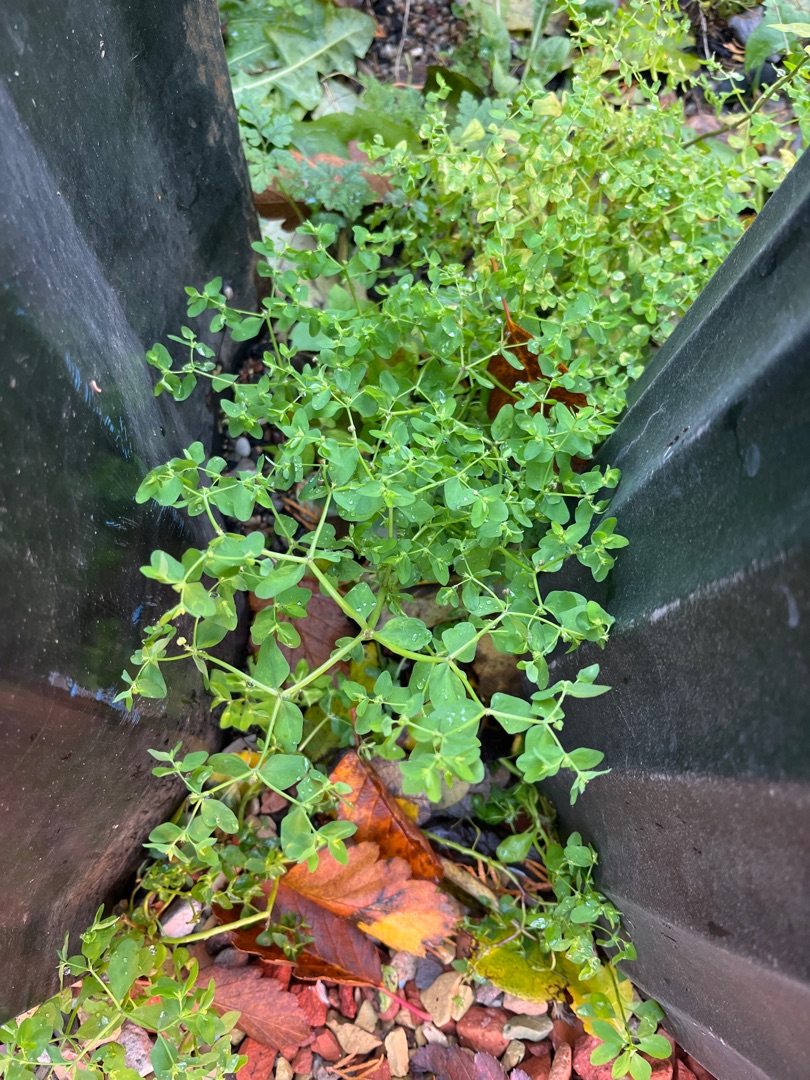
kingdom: Plantae
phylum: Tracheophyta
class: Magnoliopsida
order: Malpighiales
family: Euphorbiaceae
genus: Euphorbia
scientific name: Euphorbia peplus
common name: Gaffel-vortemælk
